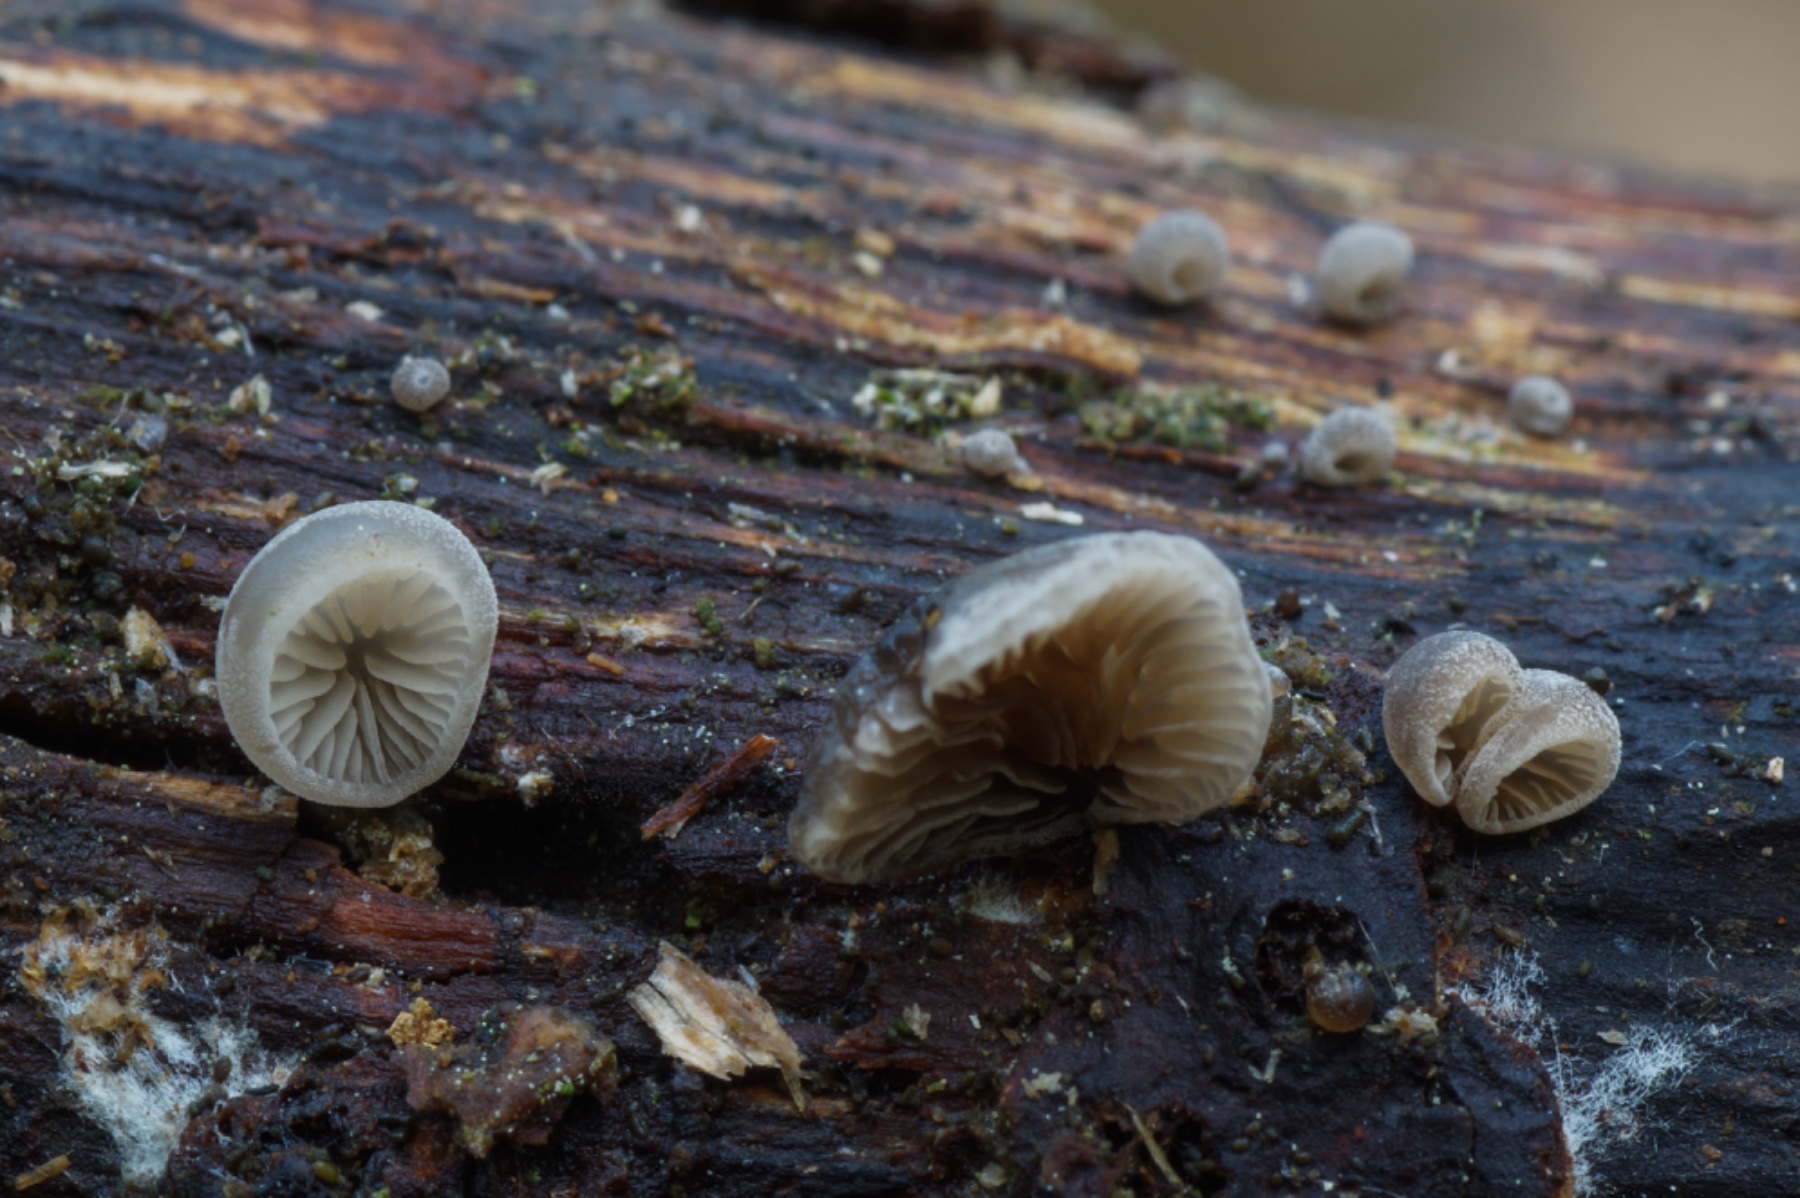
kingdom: Fungi
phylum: Basidiomycota
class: Agaricomycetes
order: Agaricales
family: Pleurotaceae
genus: Resupinatus
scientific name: Resupinatus trichotis
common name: mørkfiltet barkhat
